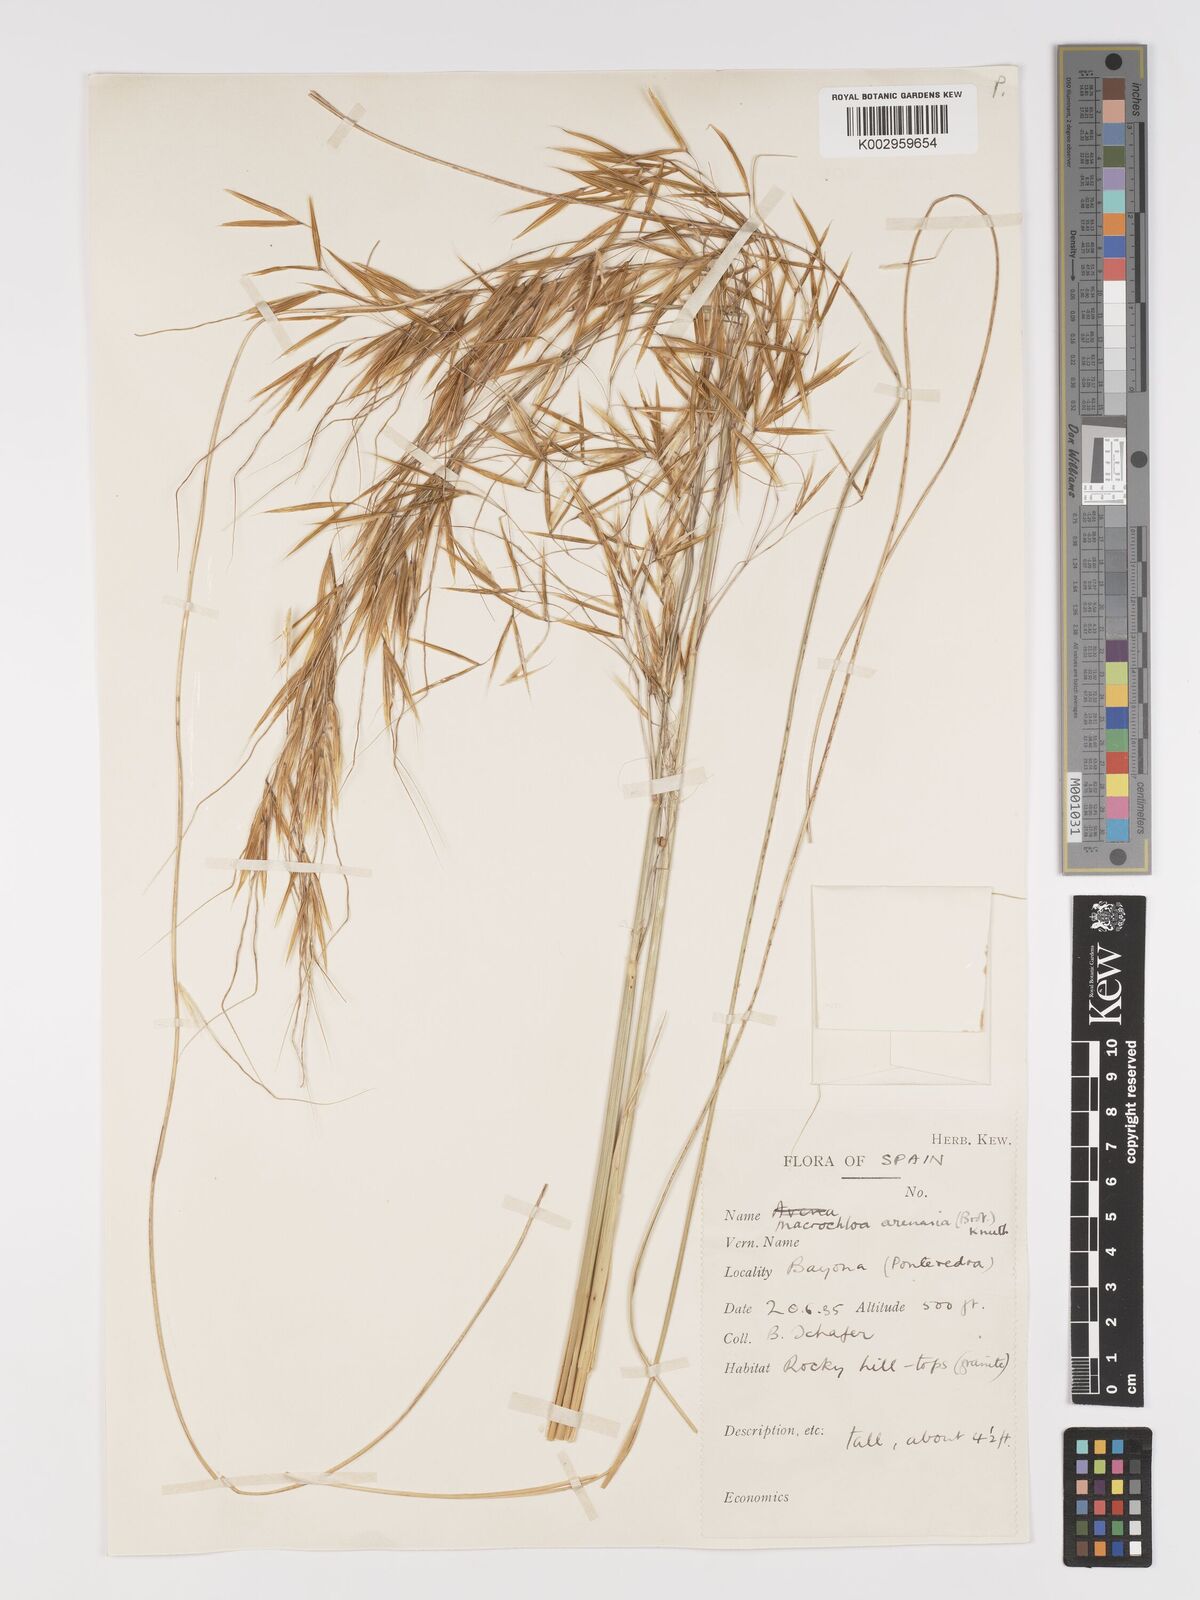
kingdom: Plantae
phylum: Tracheophyta
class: Liliopsida
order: Poales
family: Poaceae
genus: Celtica
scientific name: Celtica gigantea
